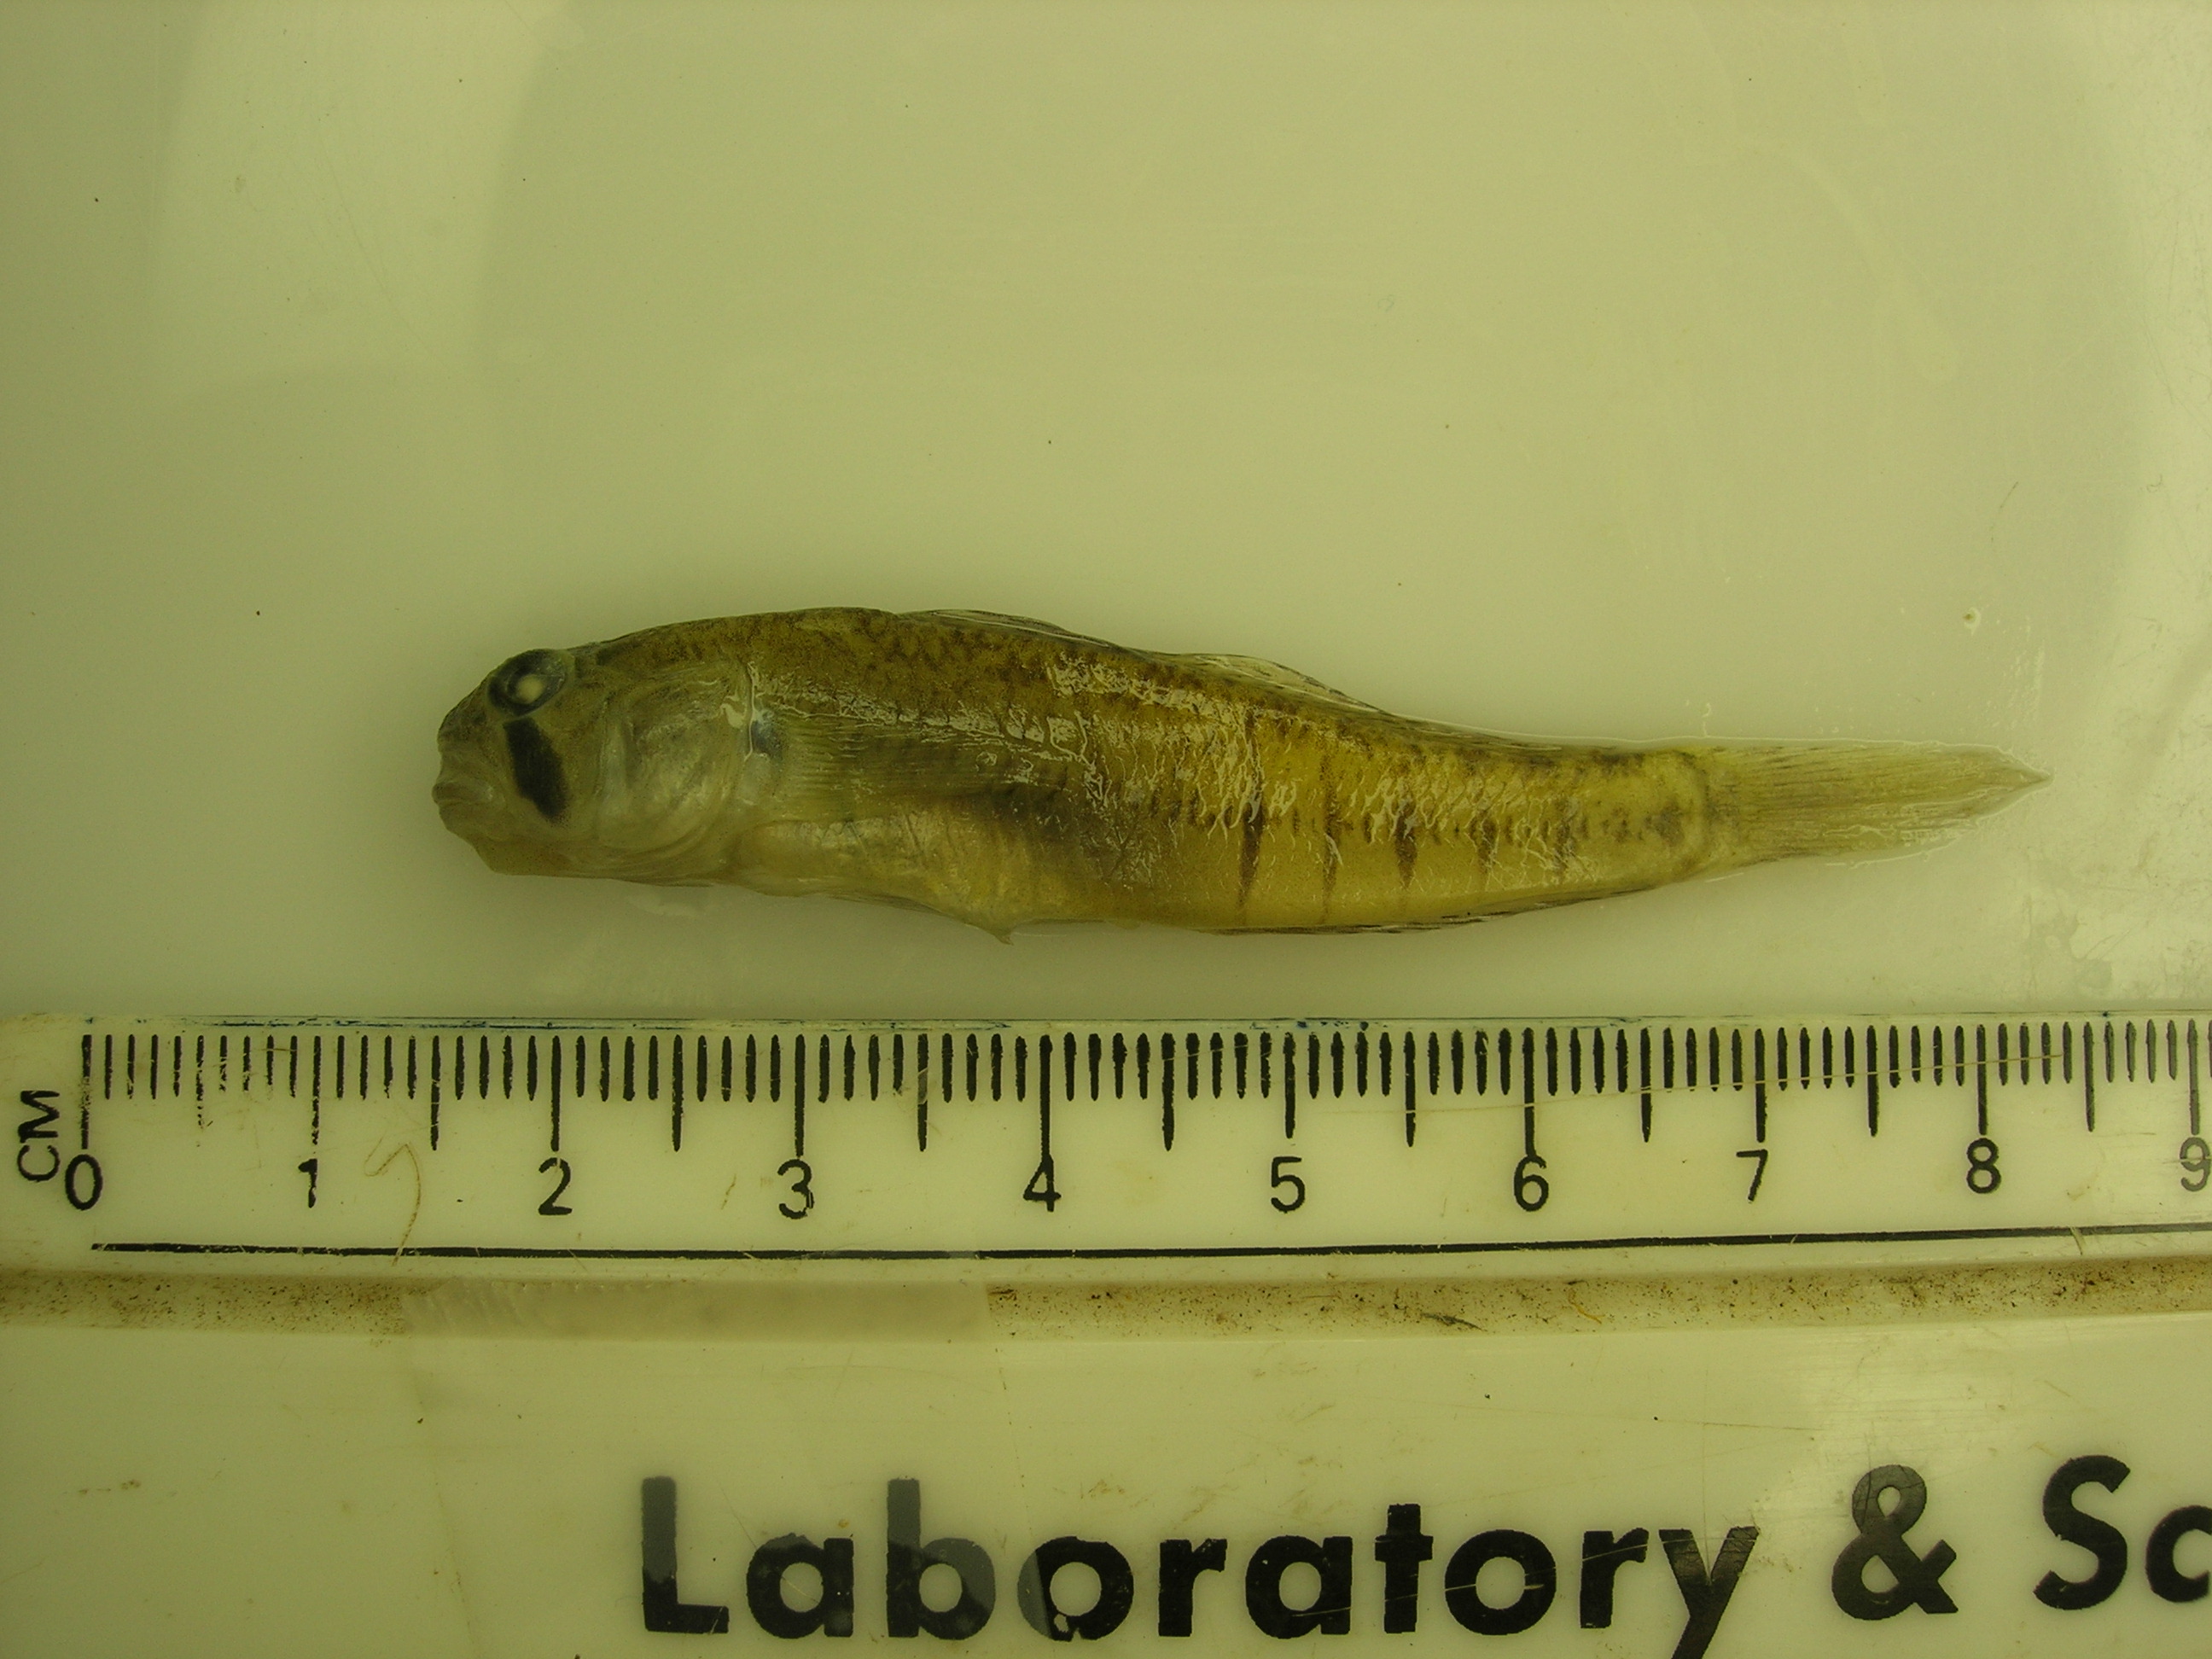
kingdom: Animalia
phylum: Chordata
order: Perciformes
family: Gobiidae
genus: Stenogobius
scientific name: Stenogobius polyzona
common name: Chinestripe goby
